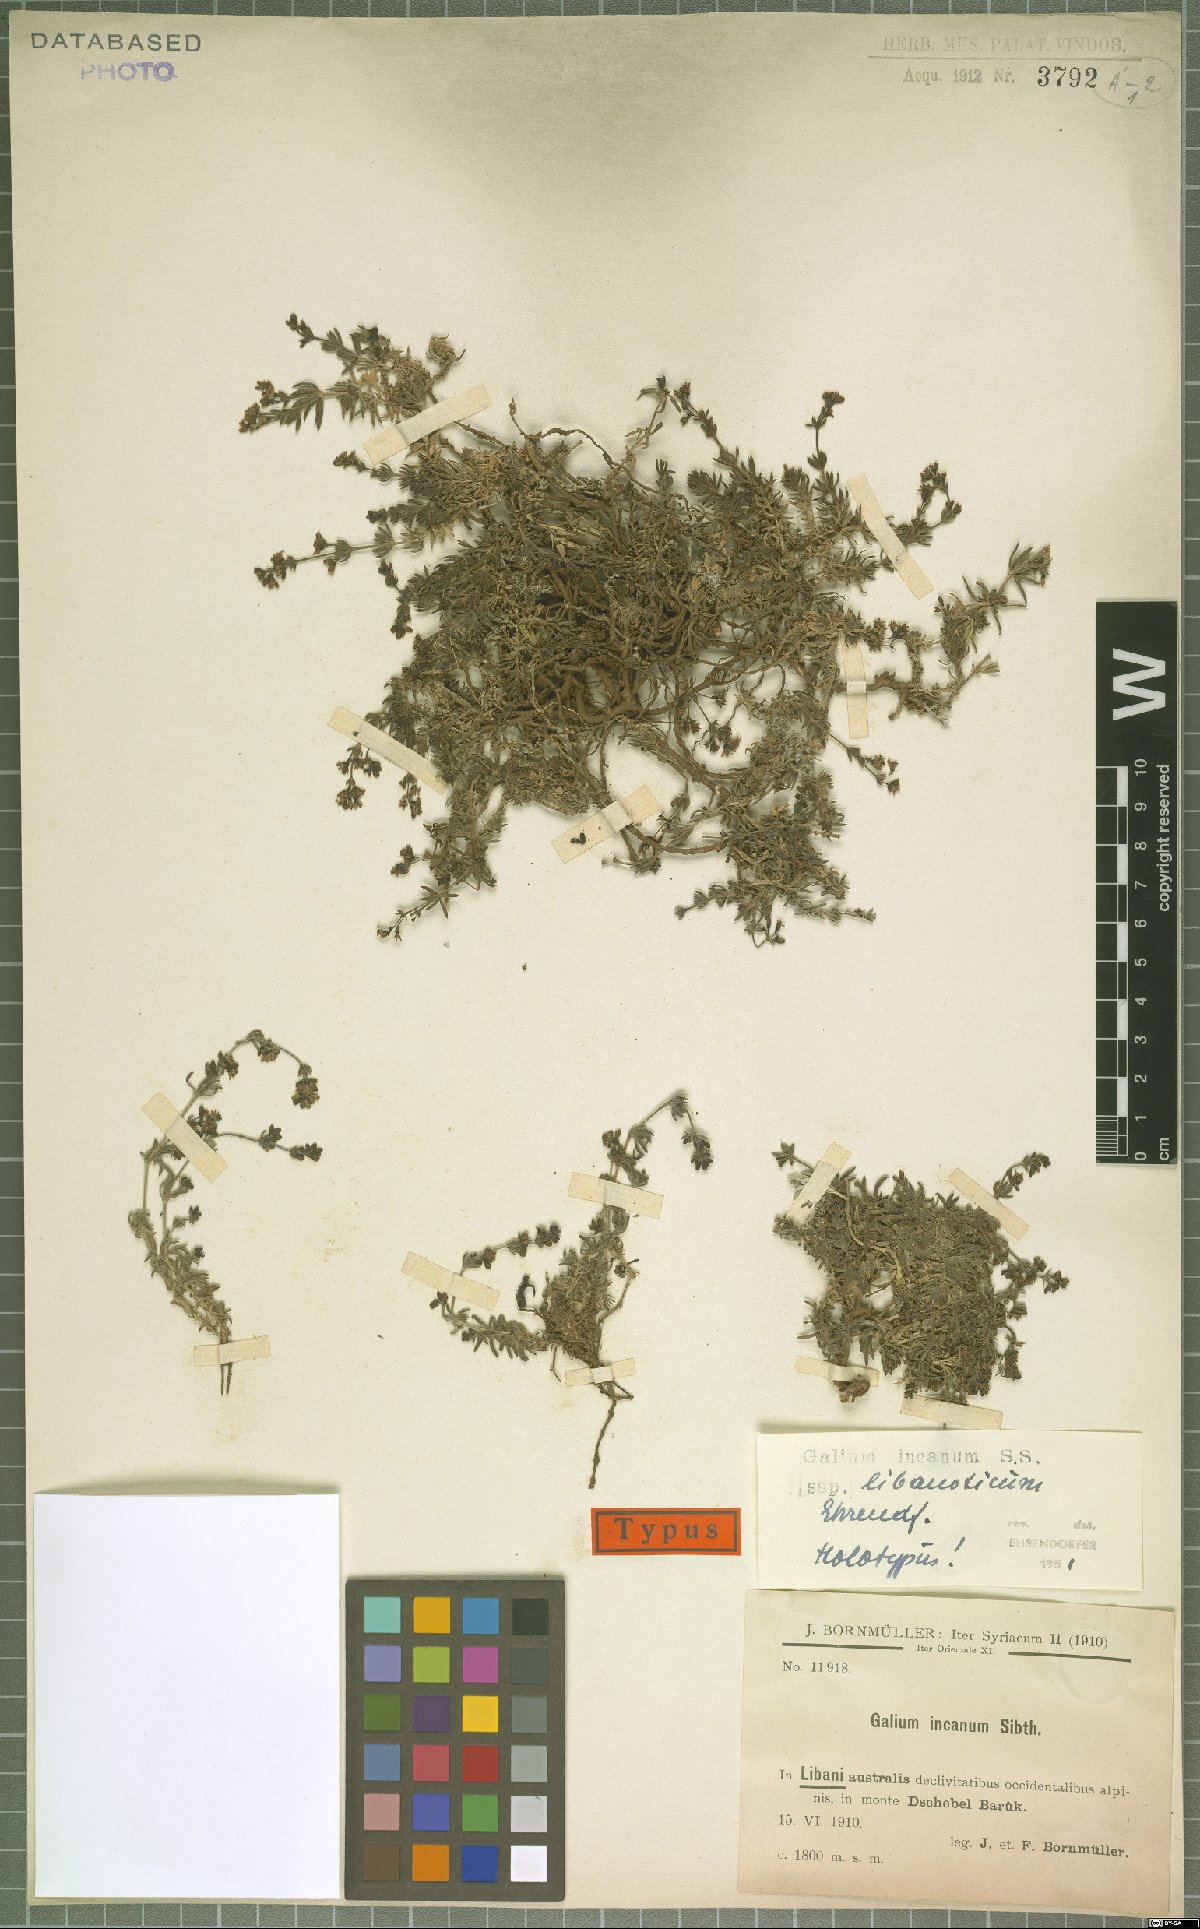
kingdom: Plantae
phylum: Tracheophyta
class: Magnoliopsida
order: Gentianales
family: Rubiaceae
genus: Galium
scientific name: Galium incanum
